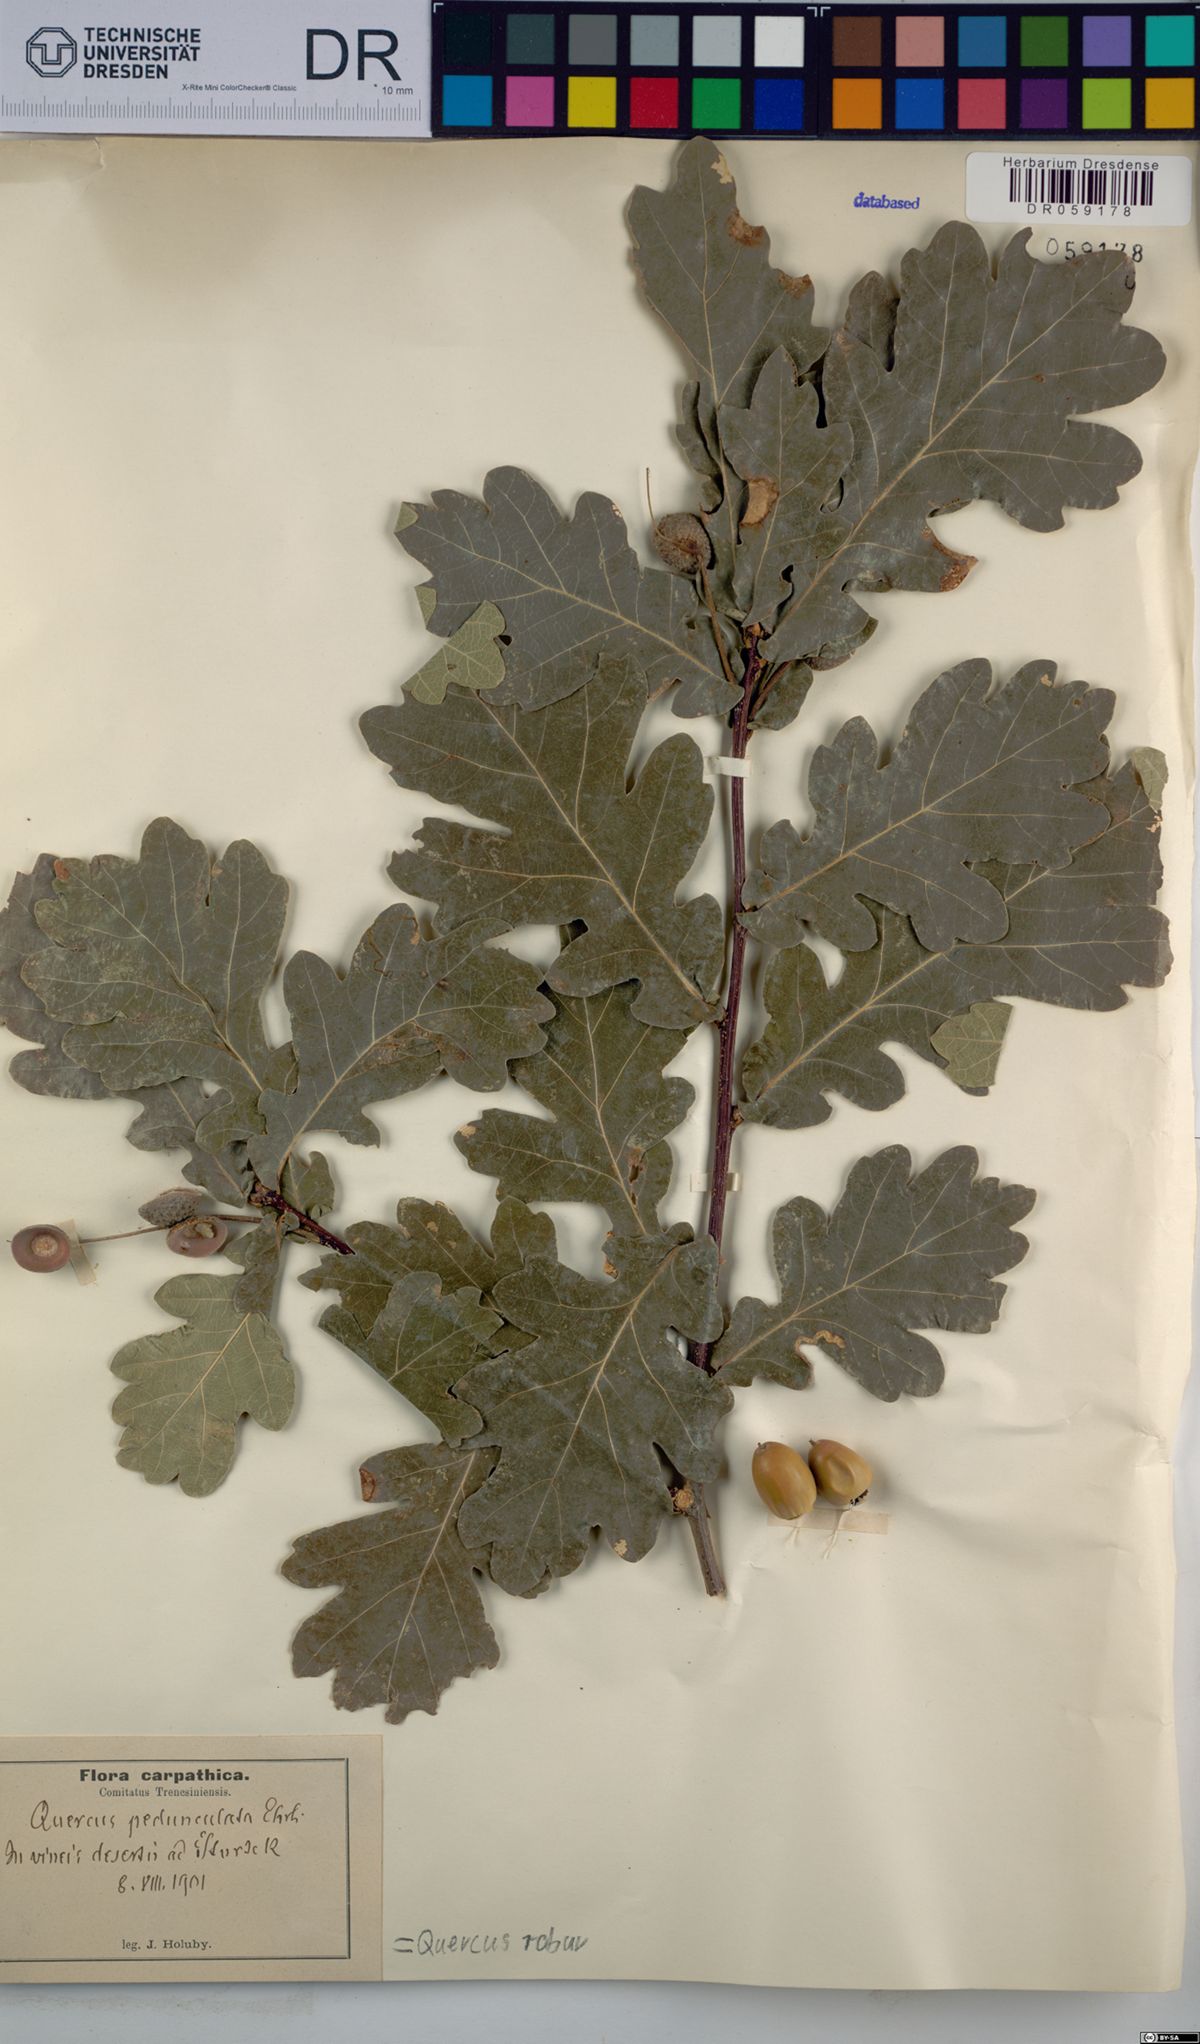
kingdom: Plantae
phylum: Tracheophyta
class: Magnoliopsida
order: Fagales
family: Fagaceae
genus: Quercus
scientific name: Quercus robur
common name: Pedunculate oak
